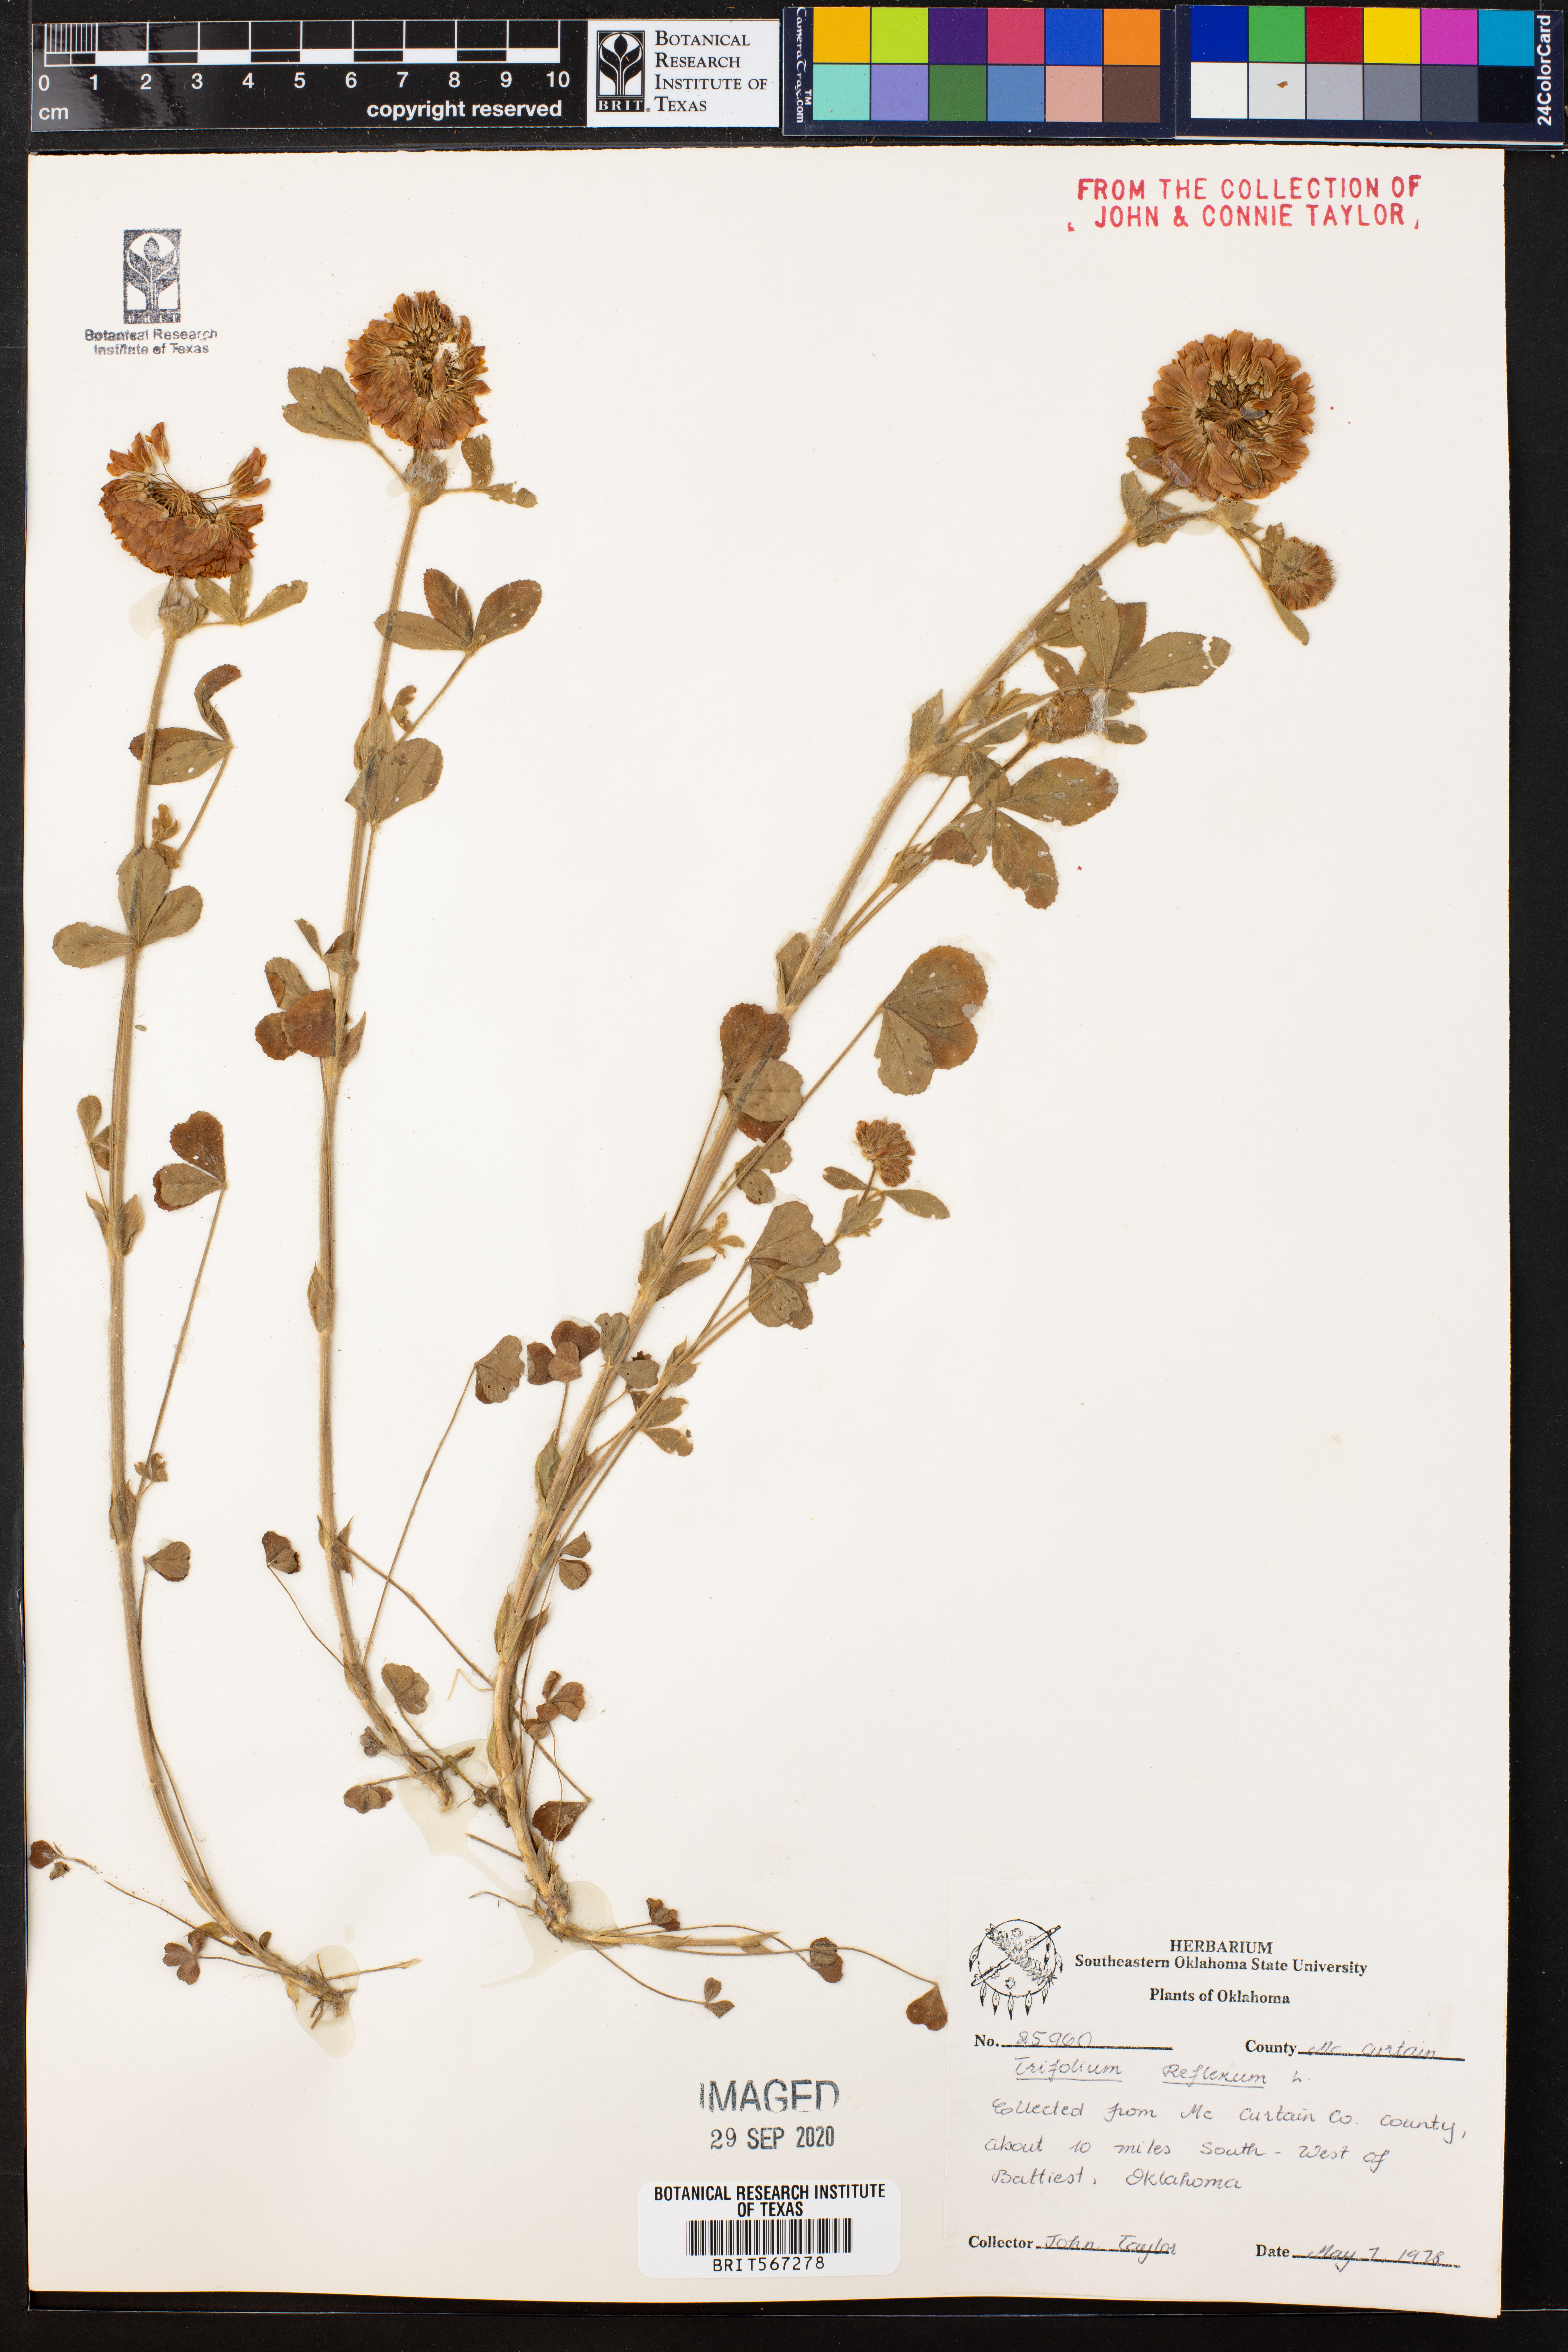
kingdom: Plantae
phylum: Tracheophyta
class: Magnoliopsida
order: Fabales
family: Fabaceae
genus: Trifolium
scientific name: Trifolium reflexum
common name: Buffalo clover
